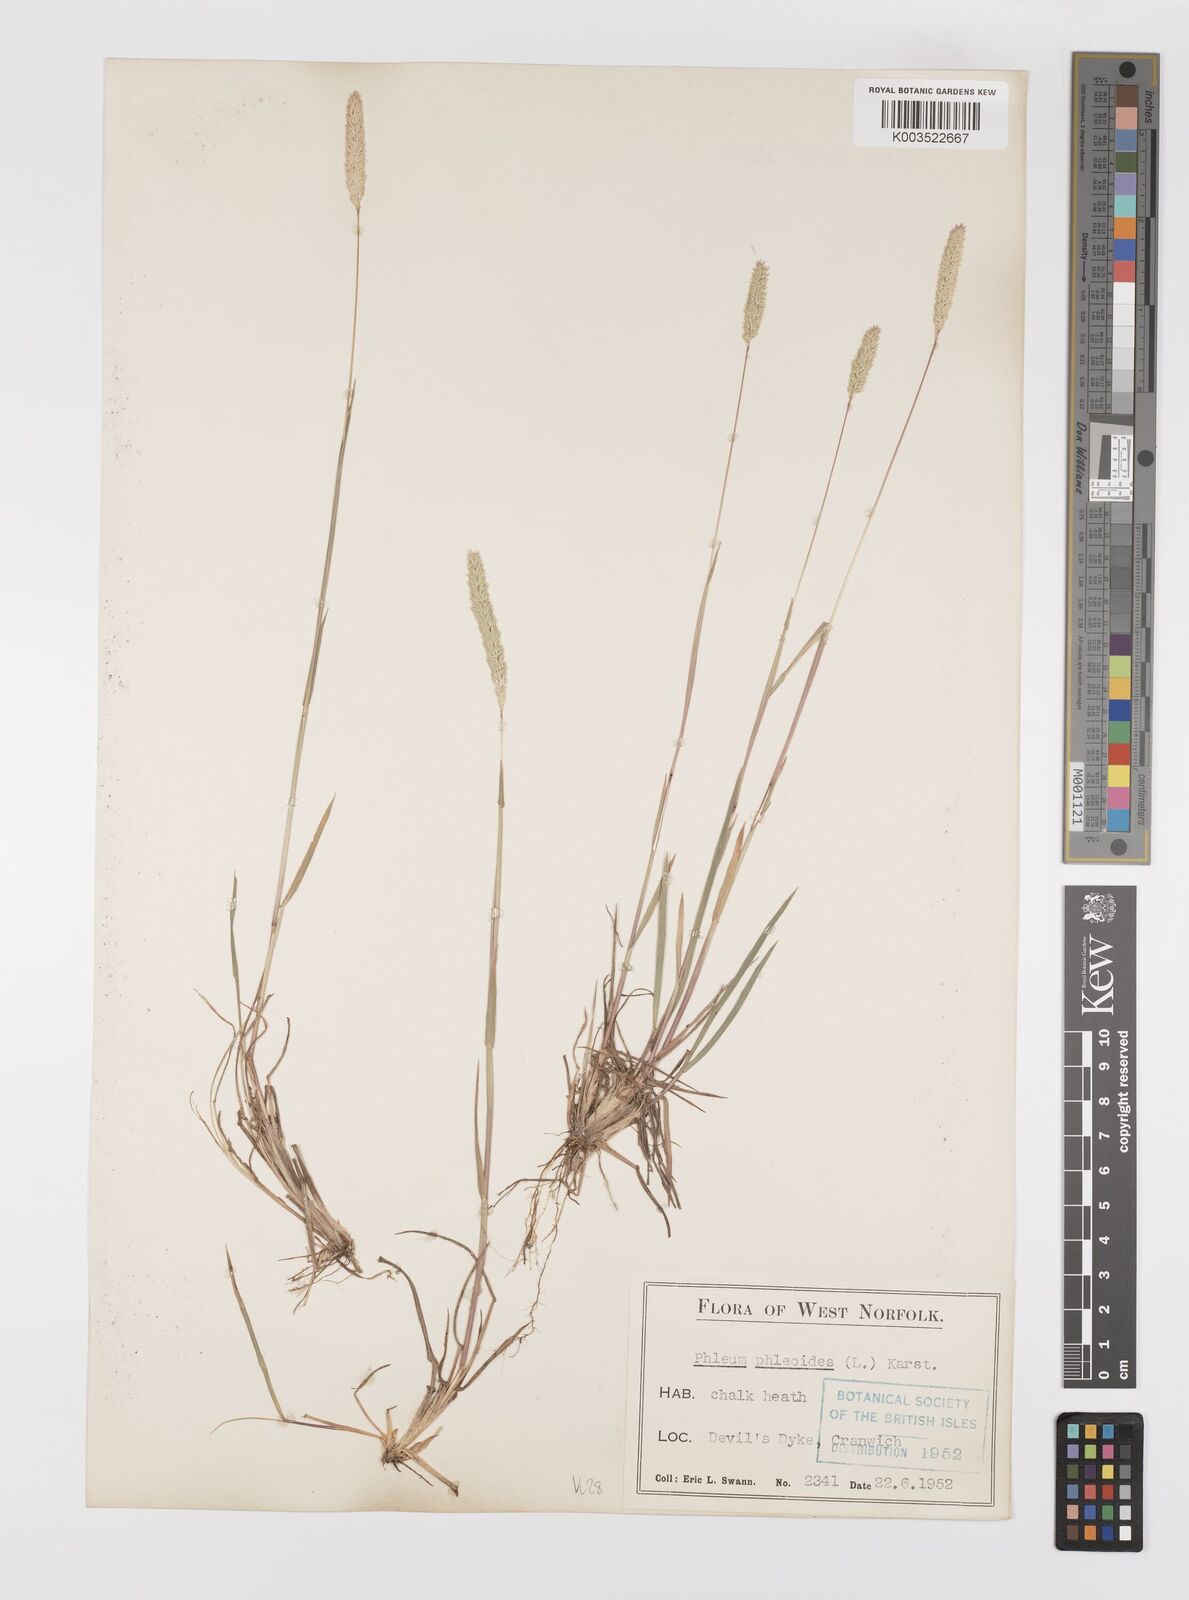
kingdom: Plantae
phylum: Tracheophyta
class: Liliopsida
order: Poales
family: Poaceae
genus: Phleum
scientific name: Phleum phleoides
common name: Purple-stem cat's-tail
